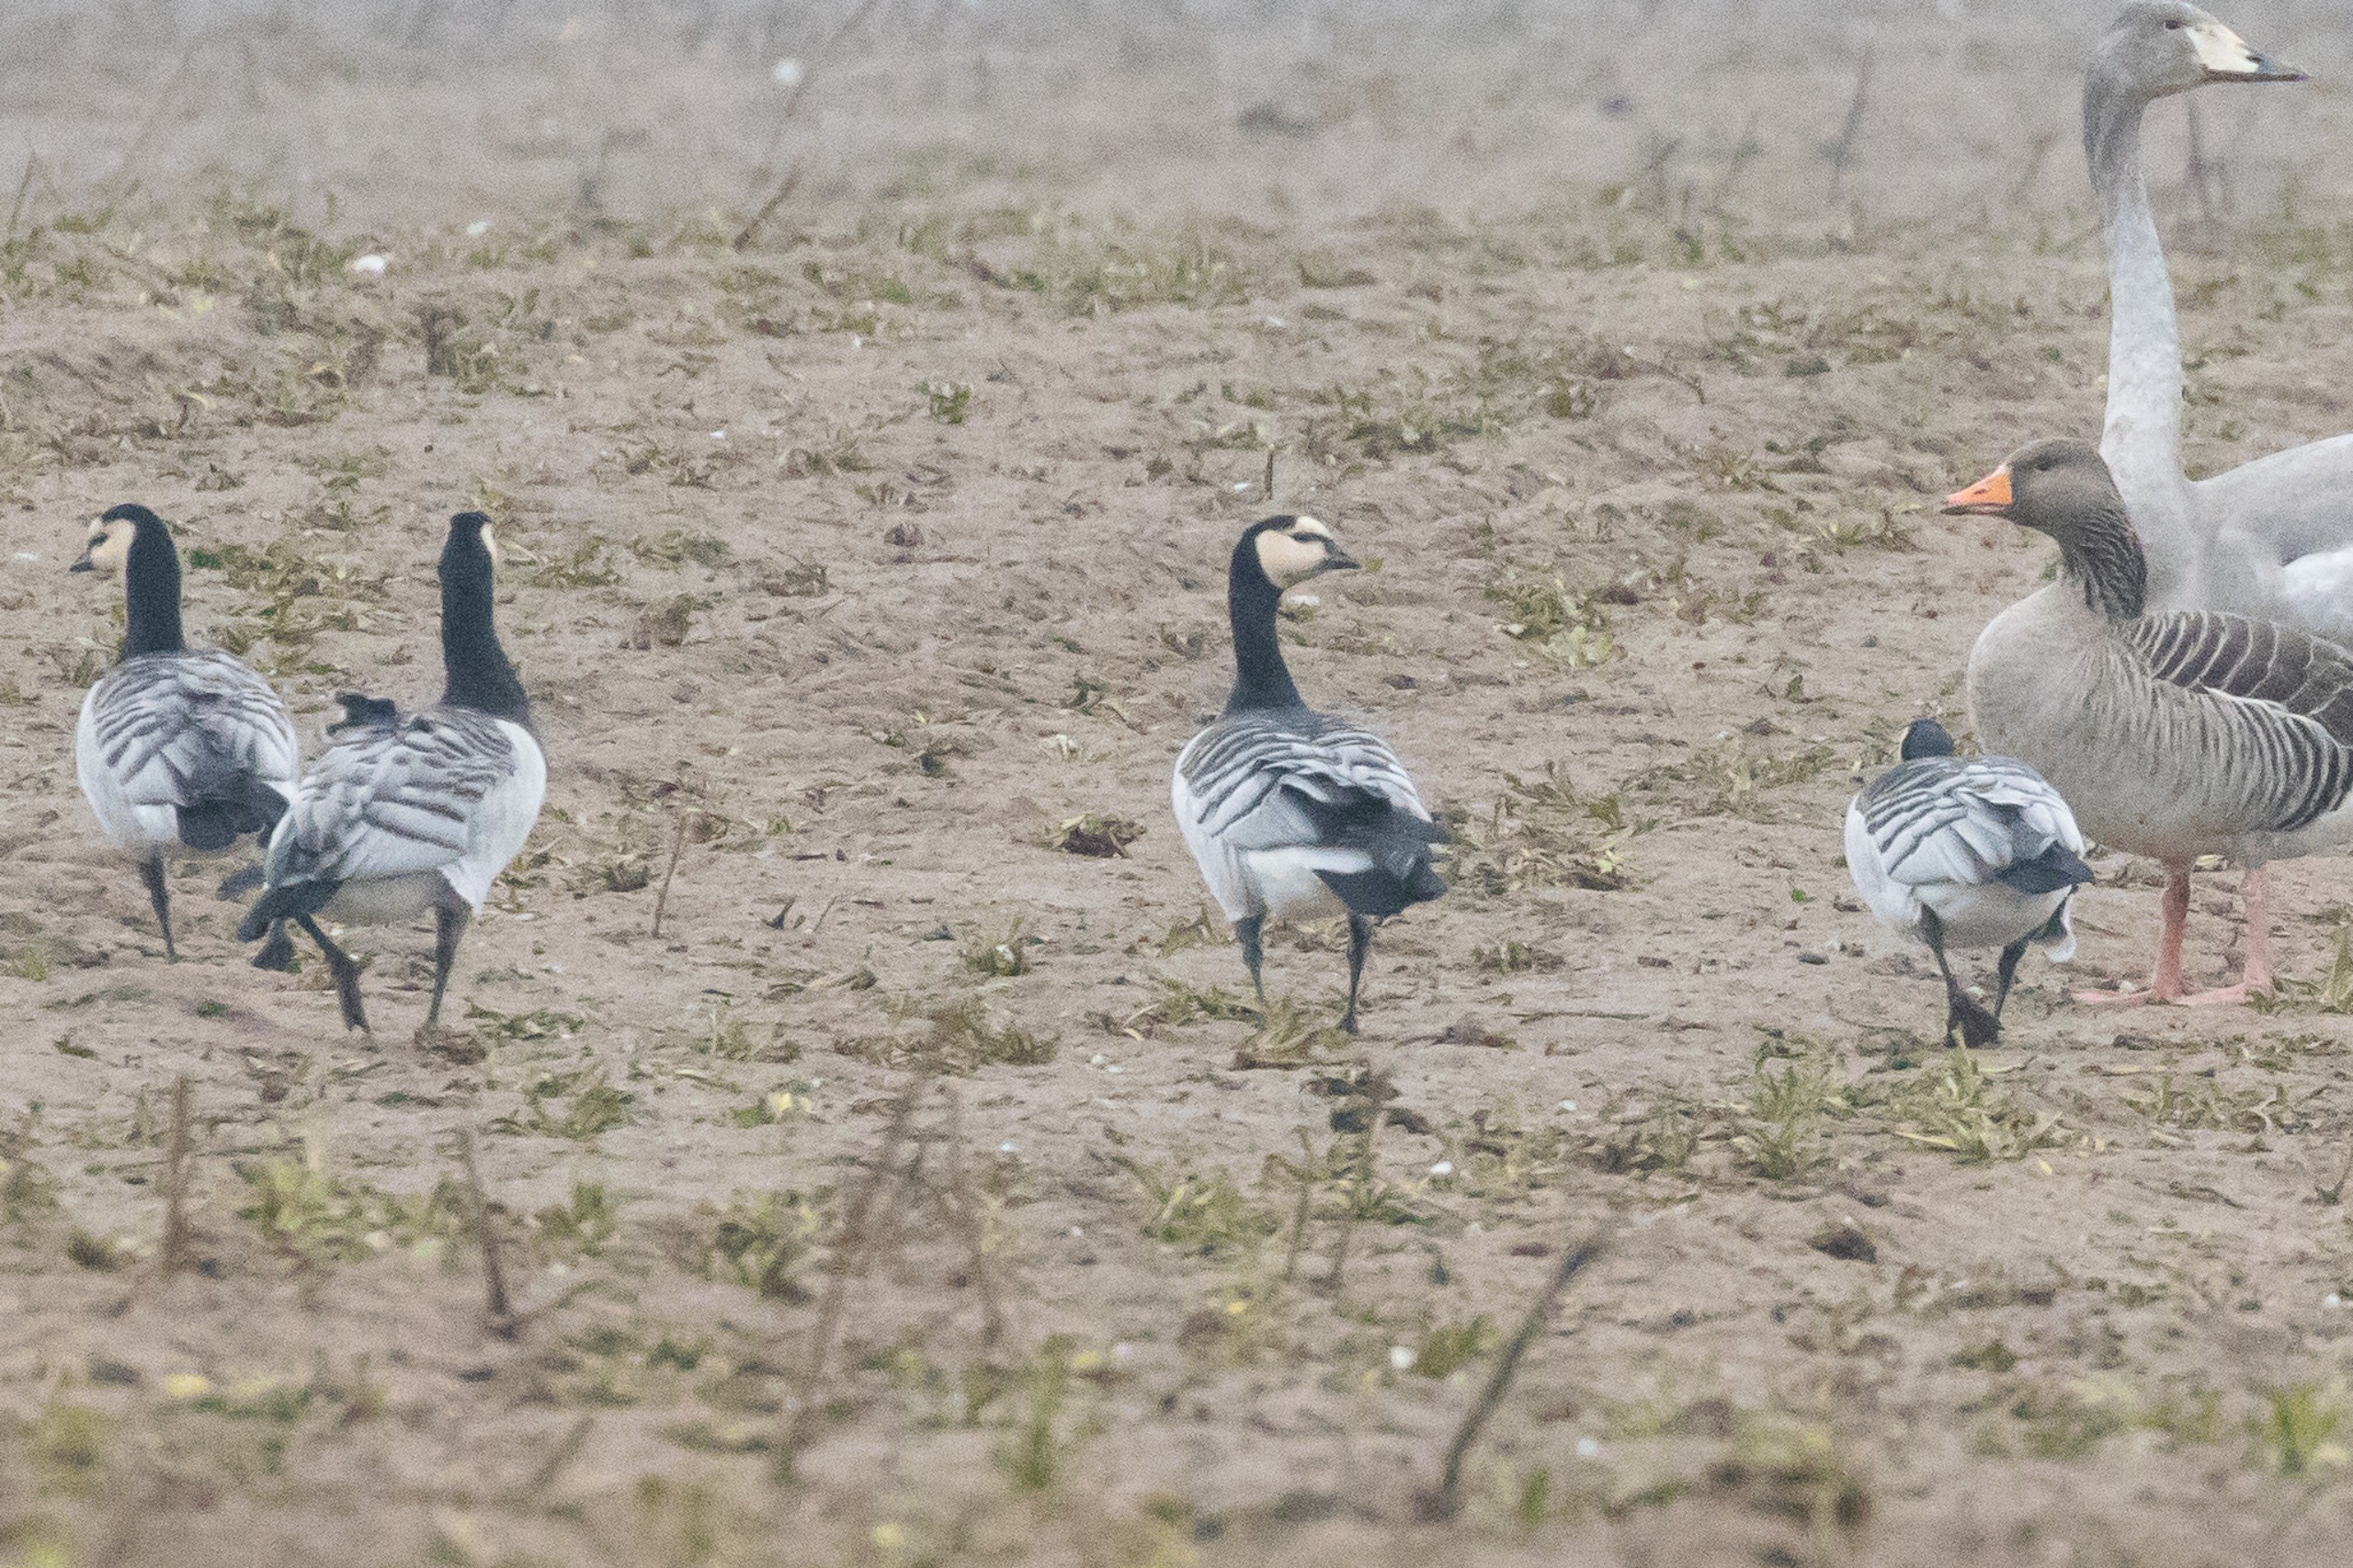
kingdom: Animalia
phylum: Chordata
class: Aves
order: Anseriformes
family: Anatidae
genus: Branta
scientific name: Branta leucopsis
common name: Bramgås
